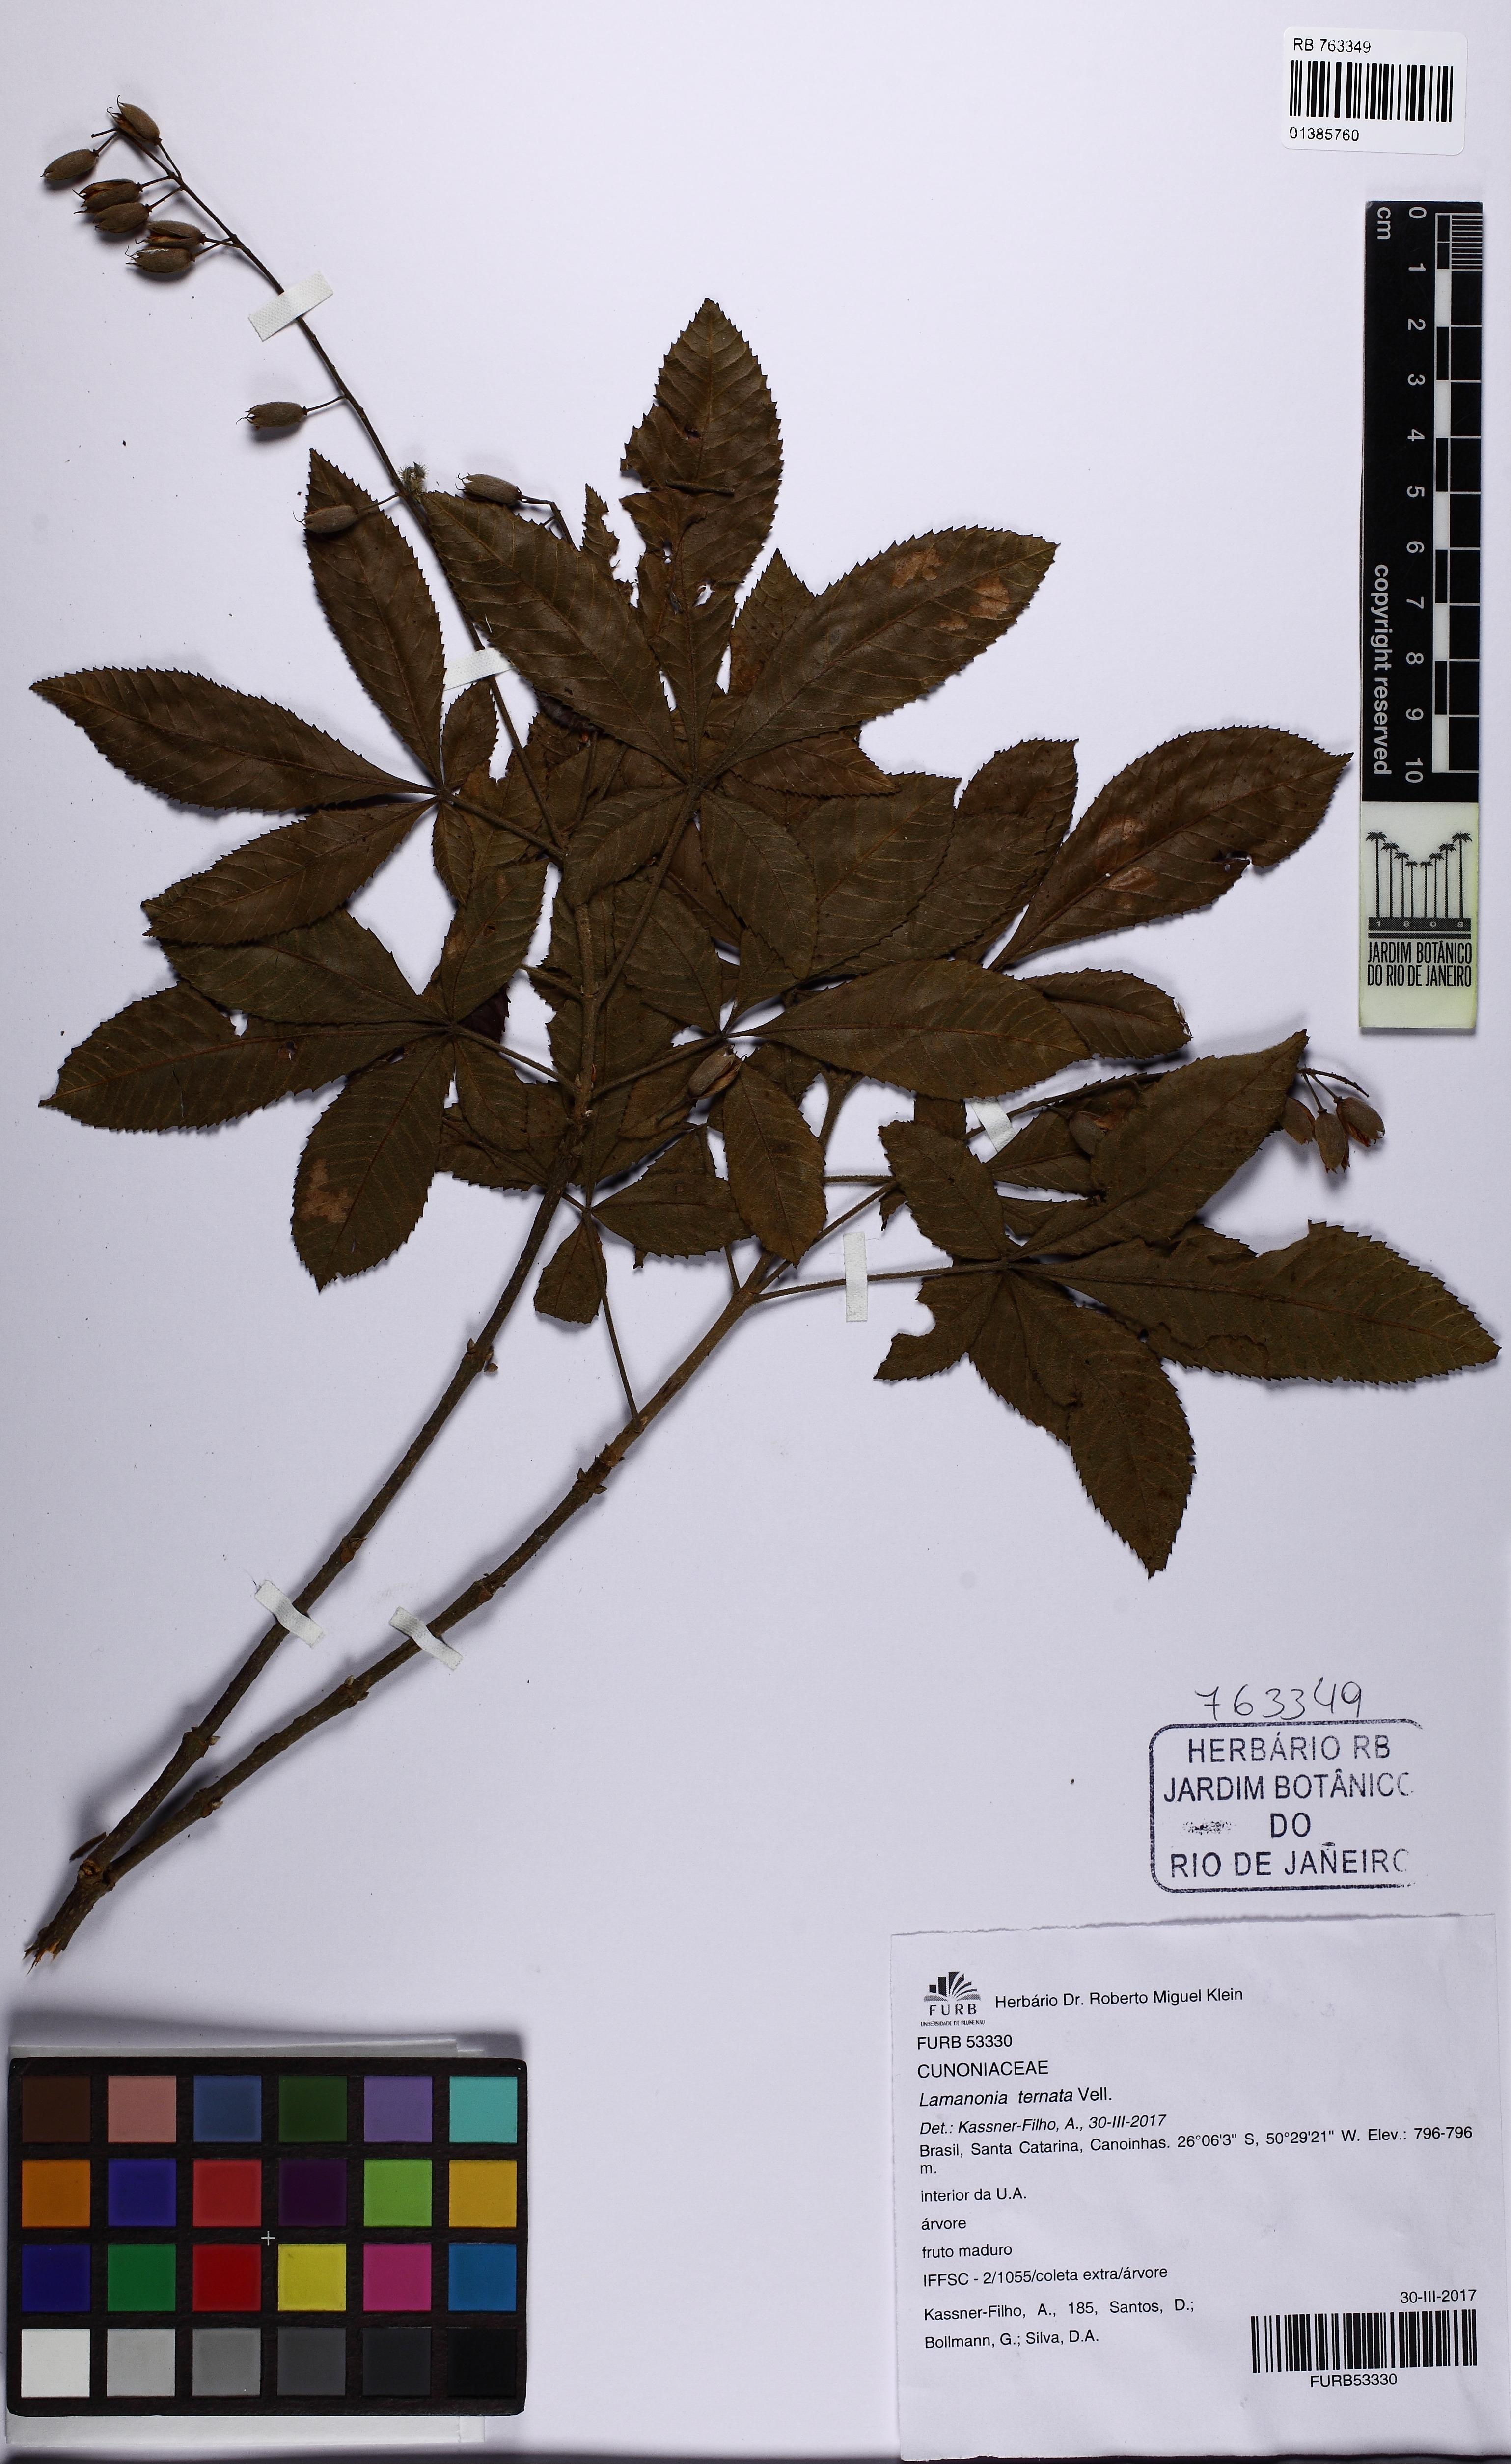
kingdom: Plantae
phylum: Tracheophyta
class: Magnoliopsida
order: Oxalidales
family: Cunoniaceae
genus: Lamanonia
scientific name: Lamanonia ternata
